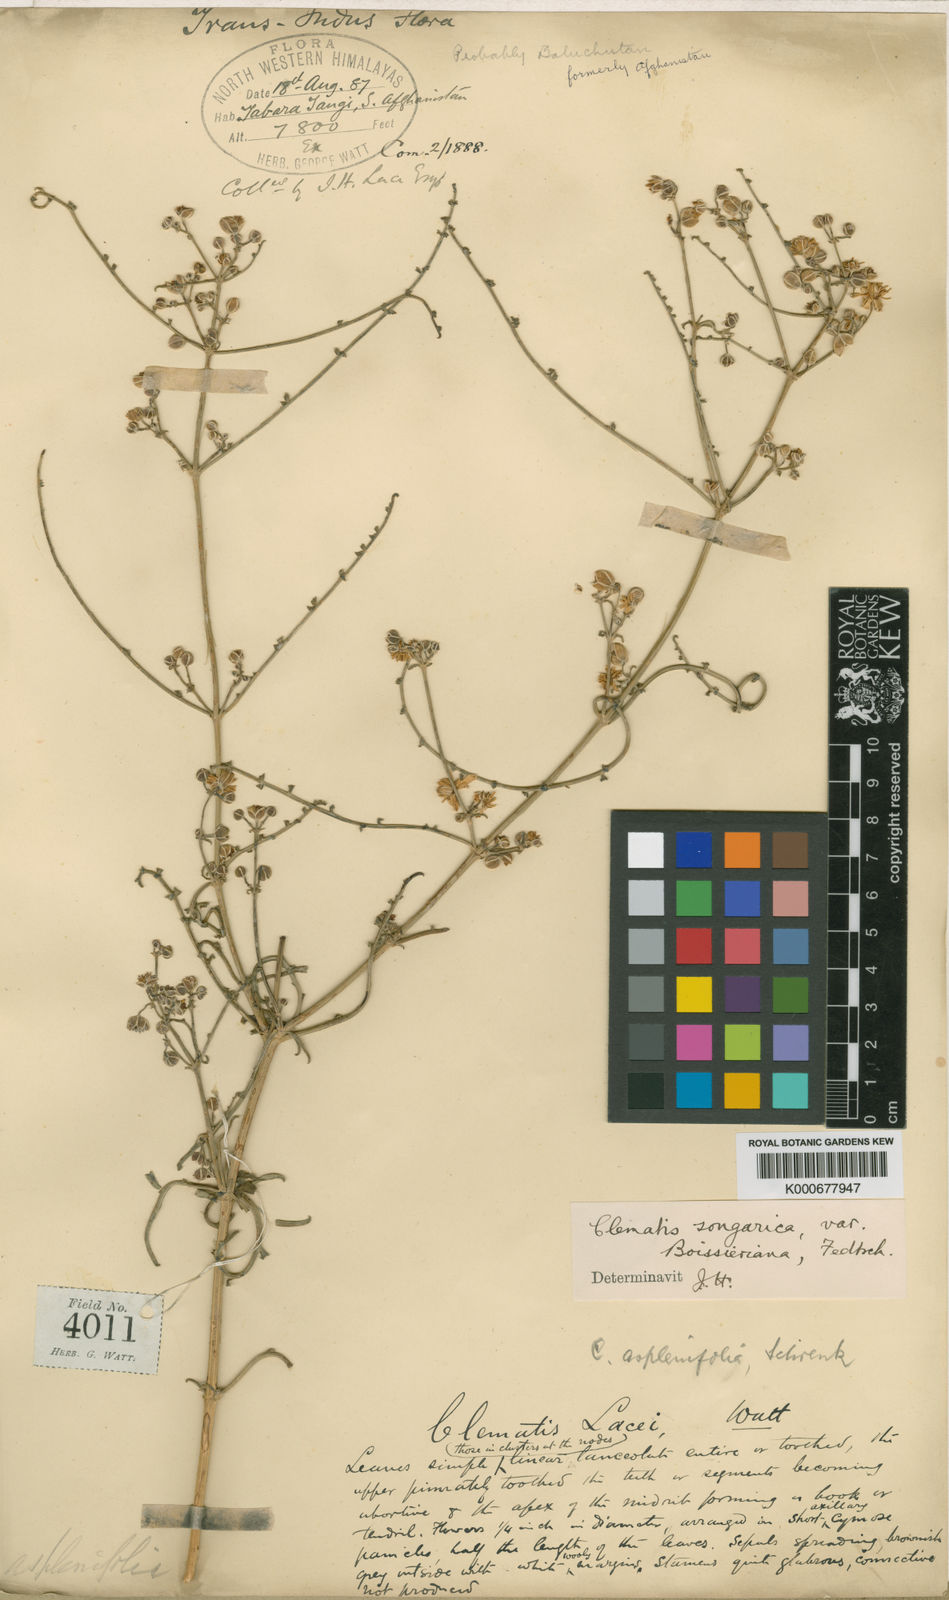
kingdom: Plantae
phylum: Tracheophyta
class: Magnoliopsida
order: Ranunculales
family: Ranunculaceae
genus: Clematis
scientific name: Clematis
